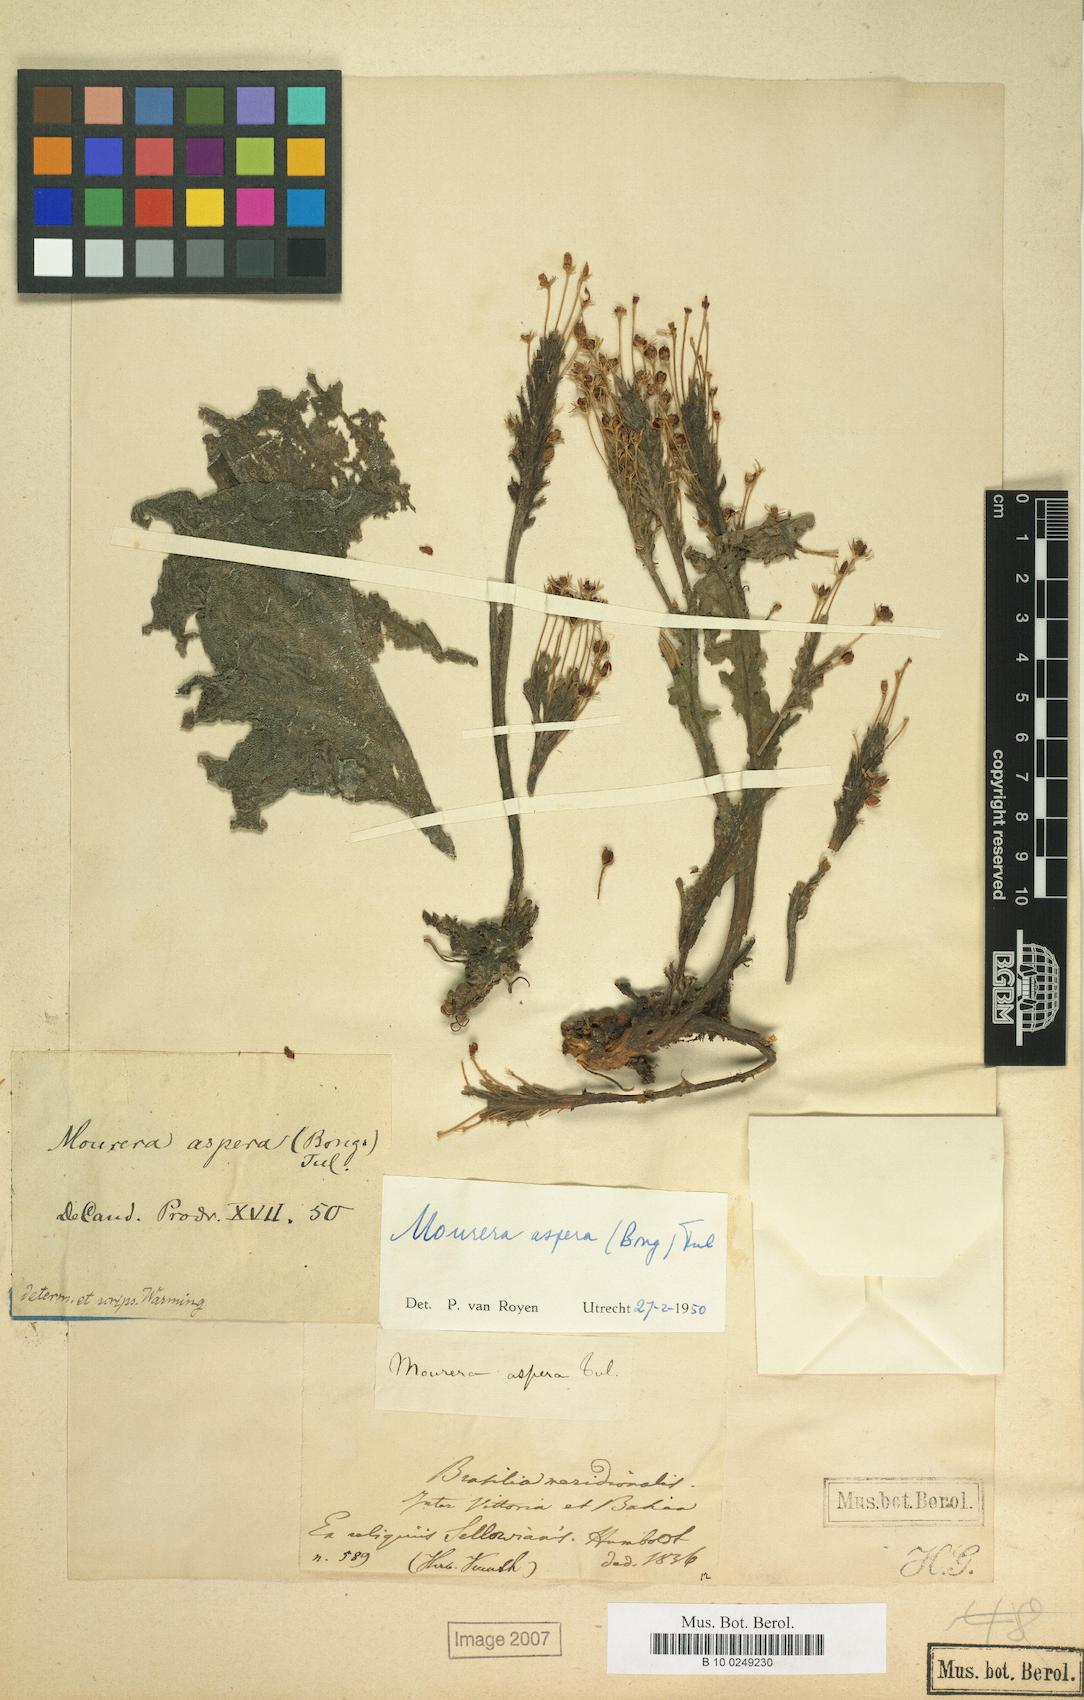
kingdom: Plantae
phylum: Tracheophyta
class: Magnoliopsida
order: Malpighiales
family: Podostemaceae
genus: Mourera
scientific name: Mourera aspera
